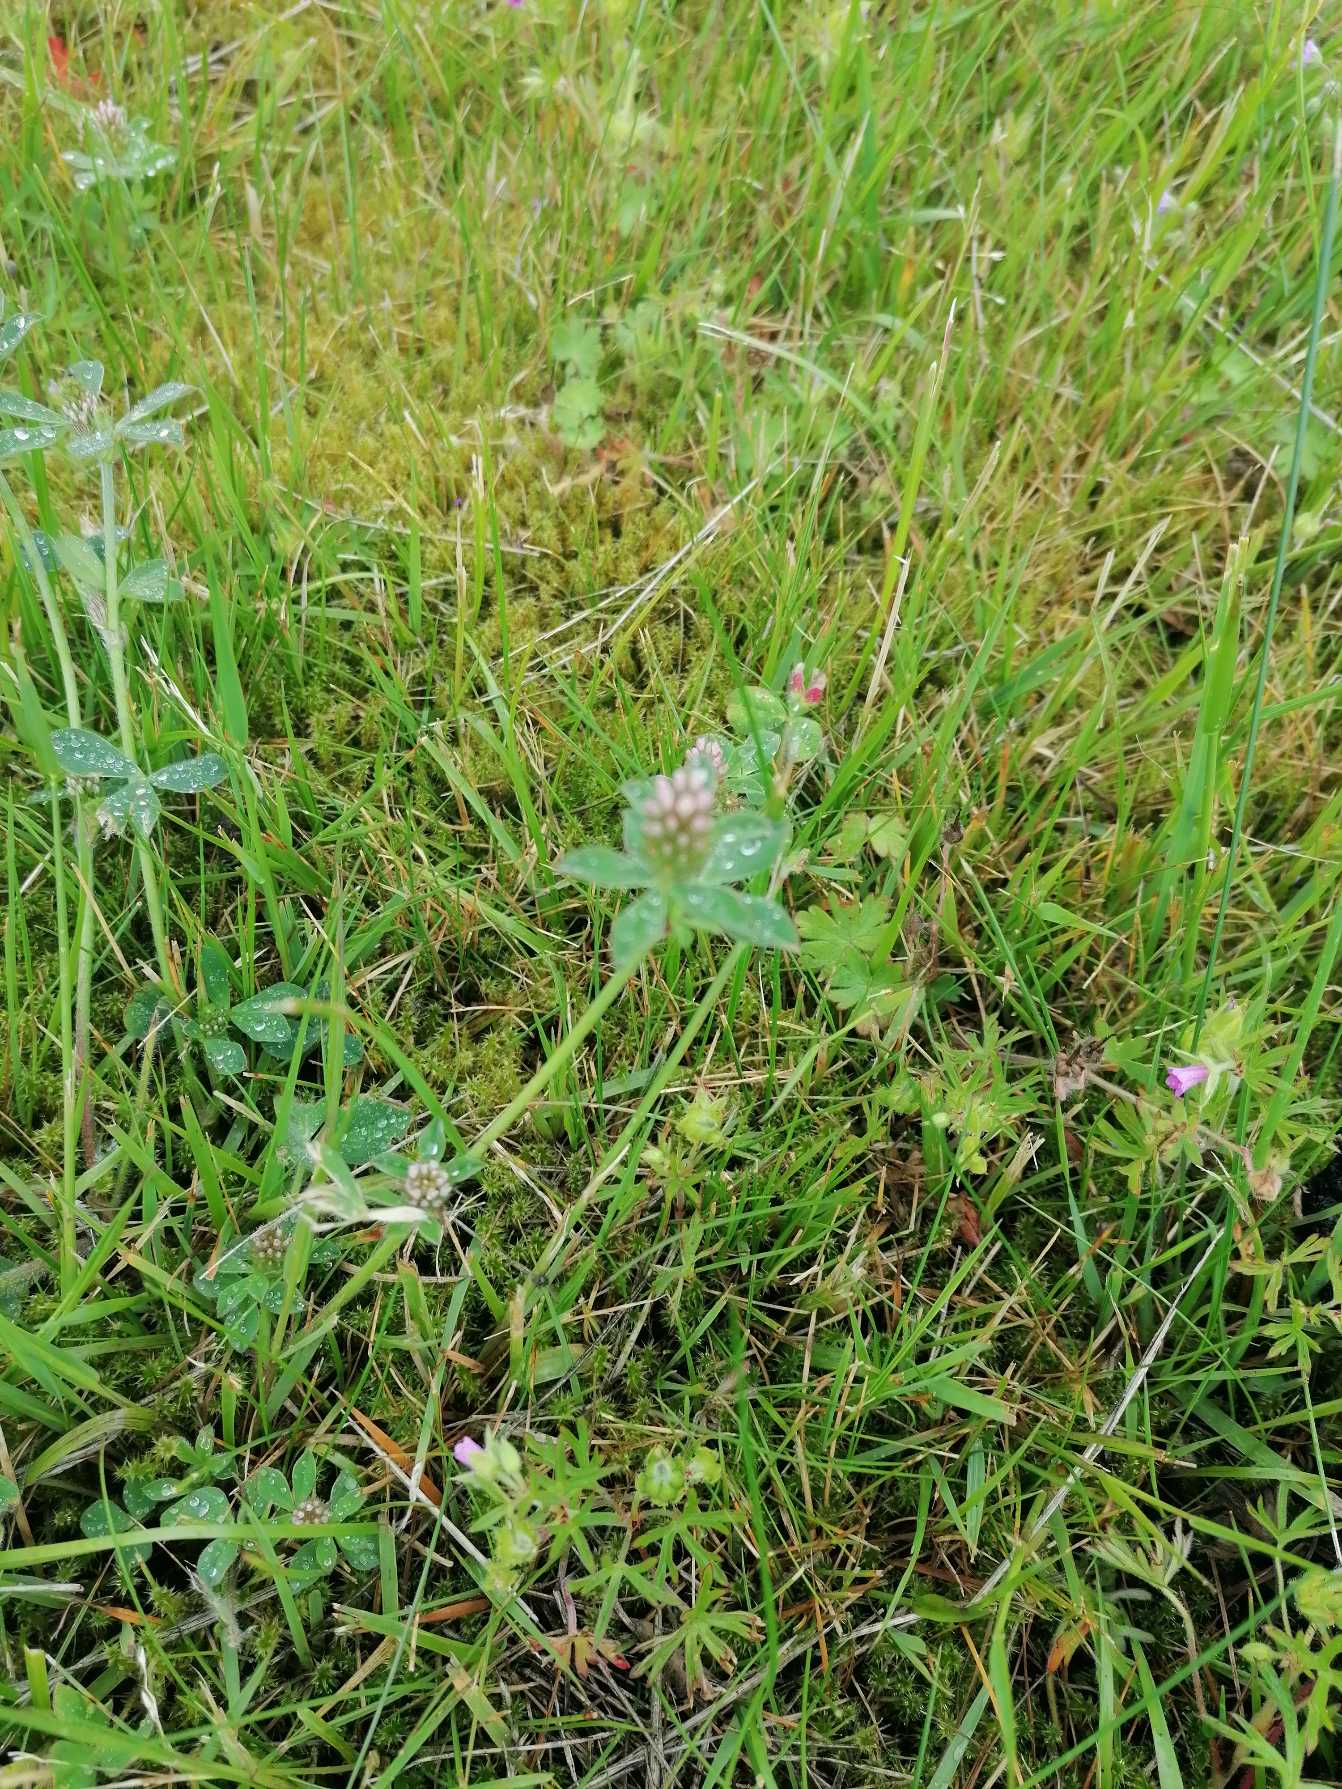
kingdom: Plantae
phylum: Tracheophyta
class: Magnoliopsida
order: Fabales
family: Fabaceae
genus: Trifolium
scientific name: Trifolium striatum
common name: Stribet kløver
